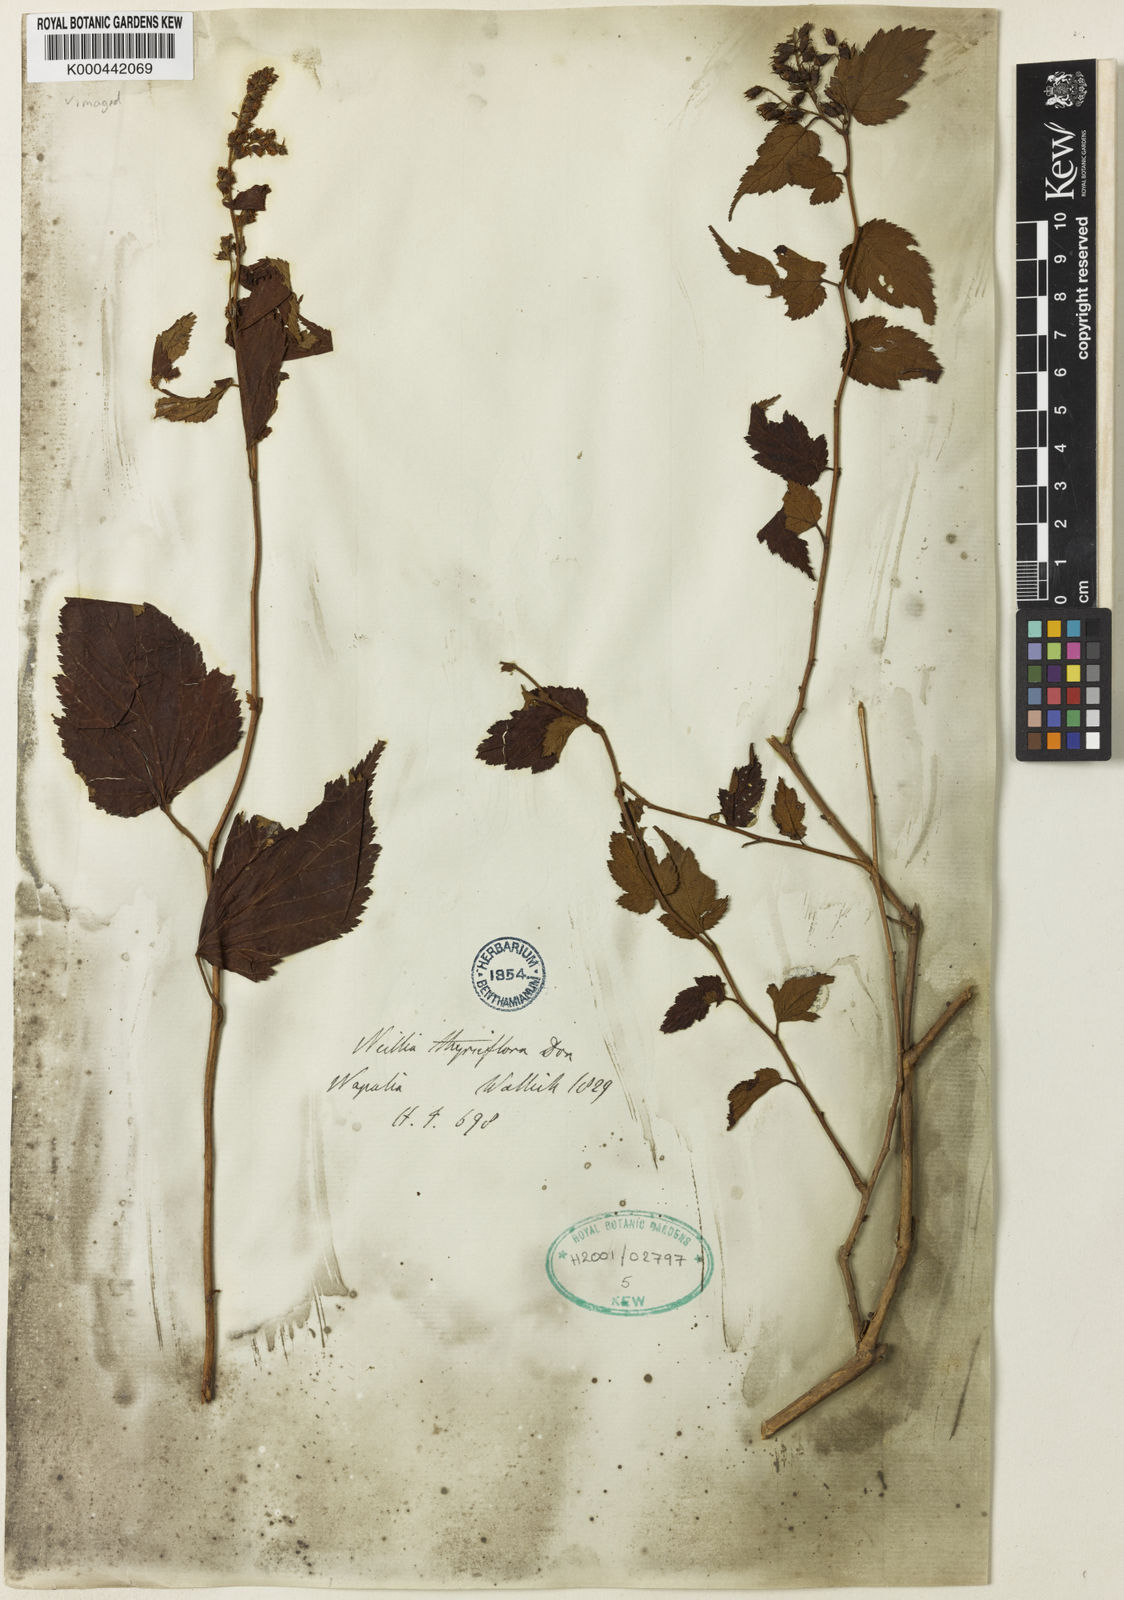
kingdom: Plantae
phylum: Tracheophyta
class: Magnoliopsida
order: Rosales
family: Rosaceae
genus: Neillia
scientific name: Neillia thyrsiflora
